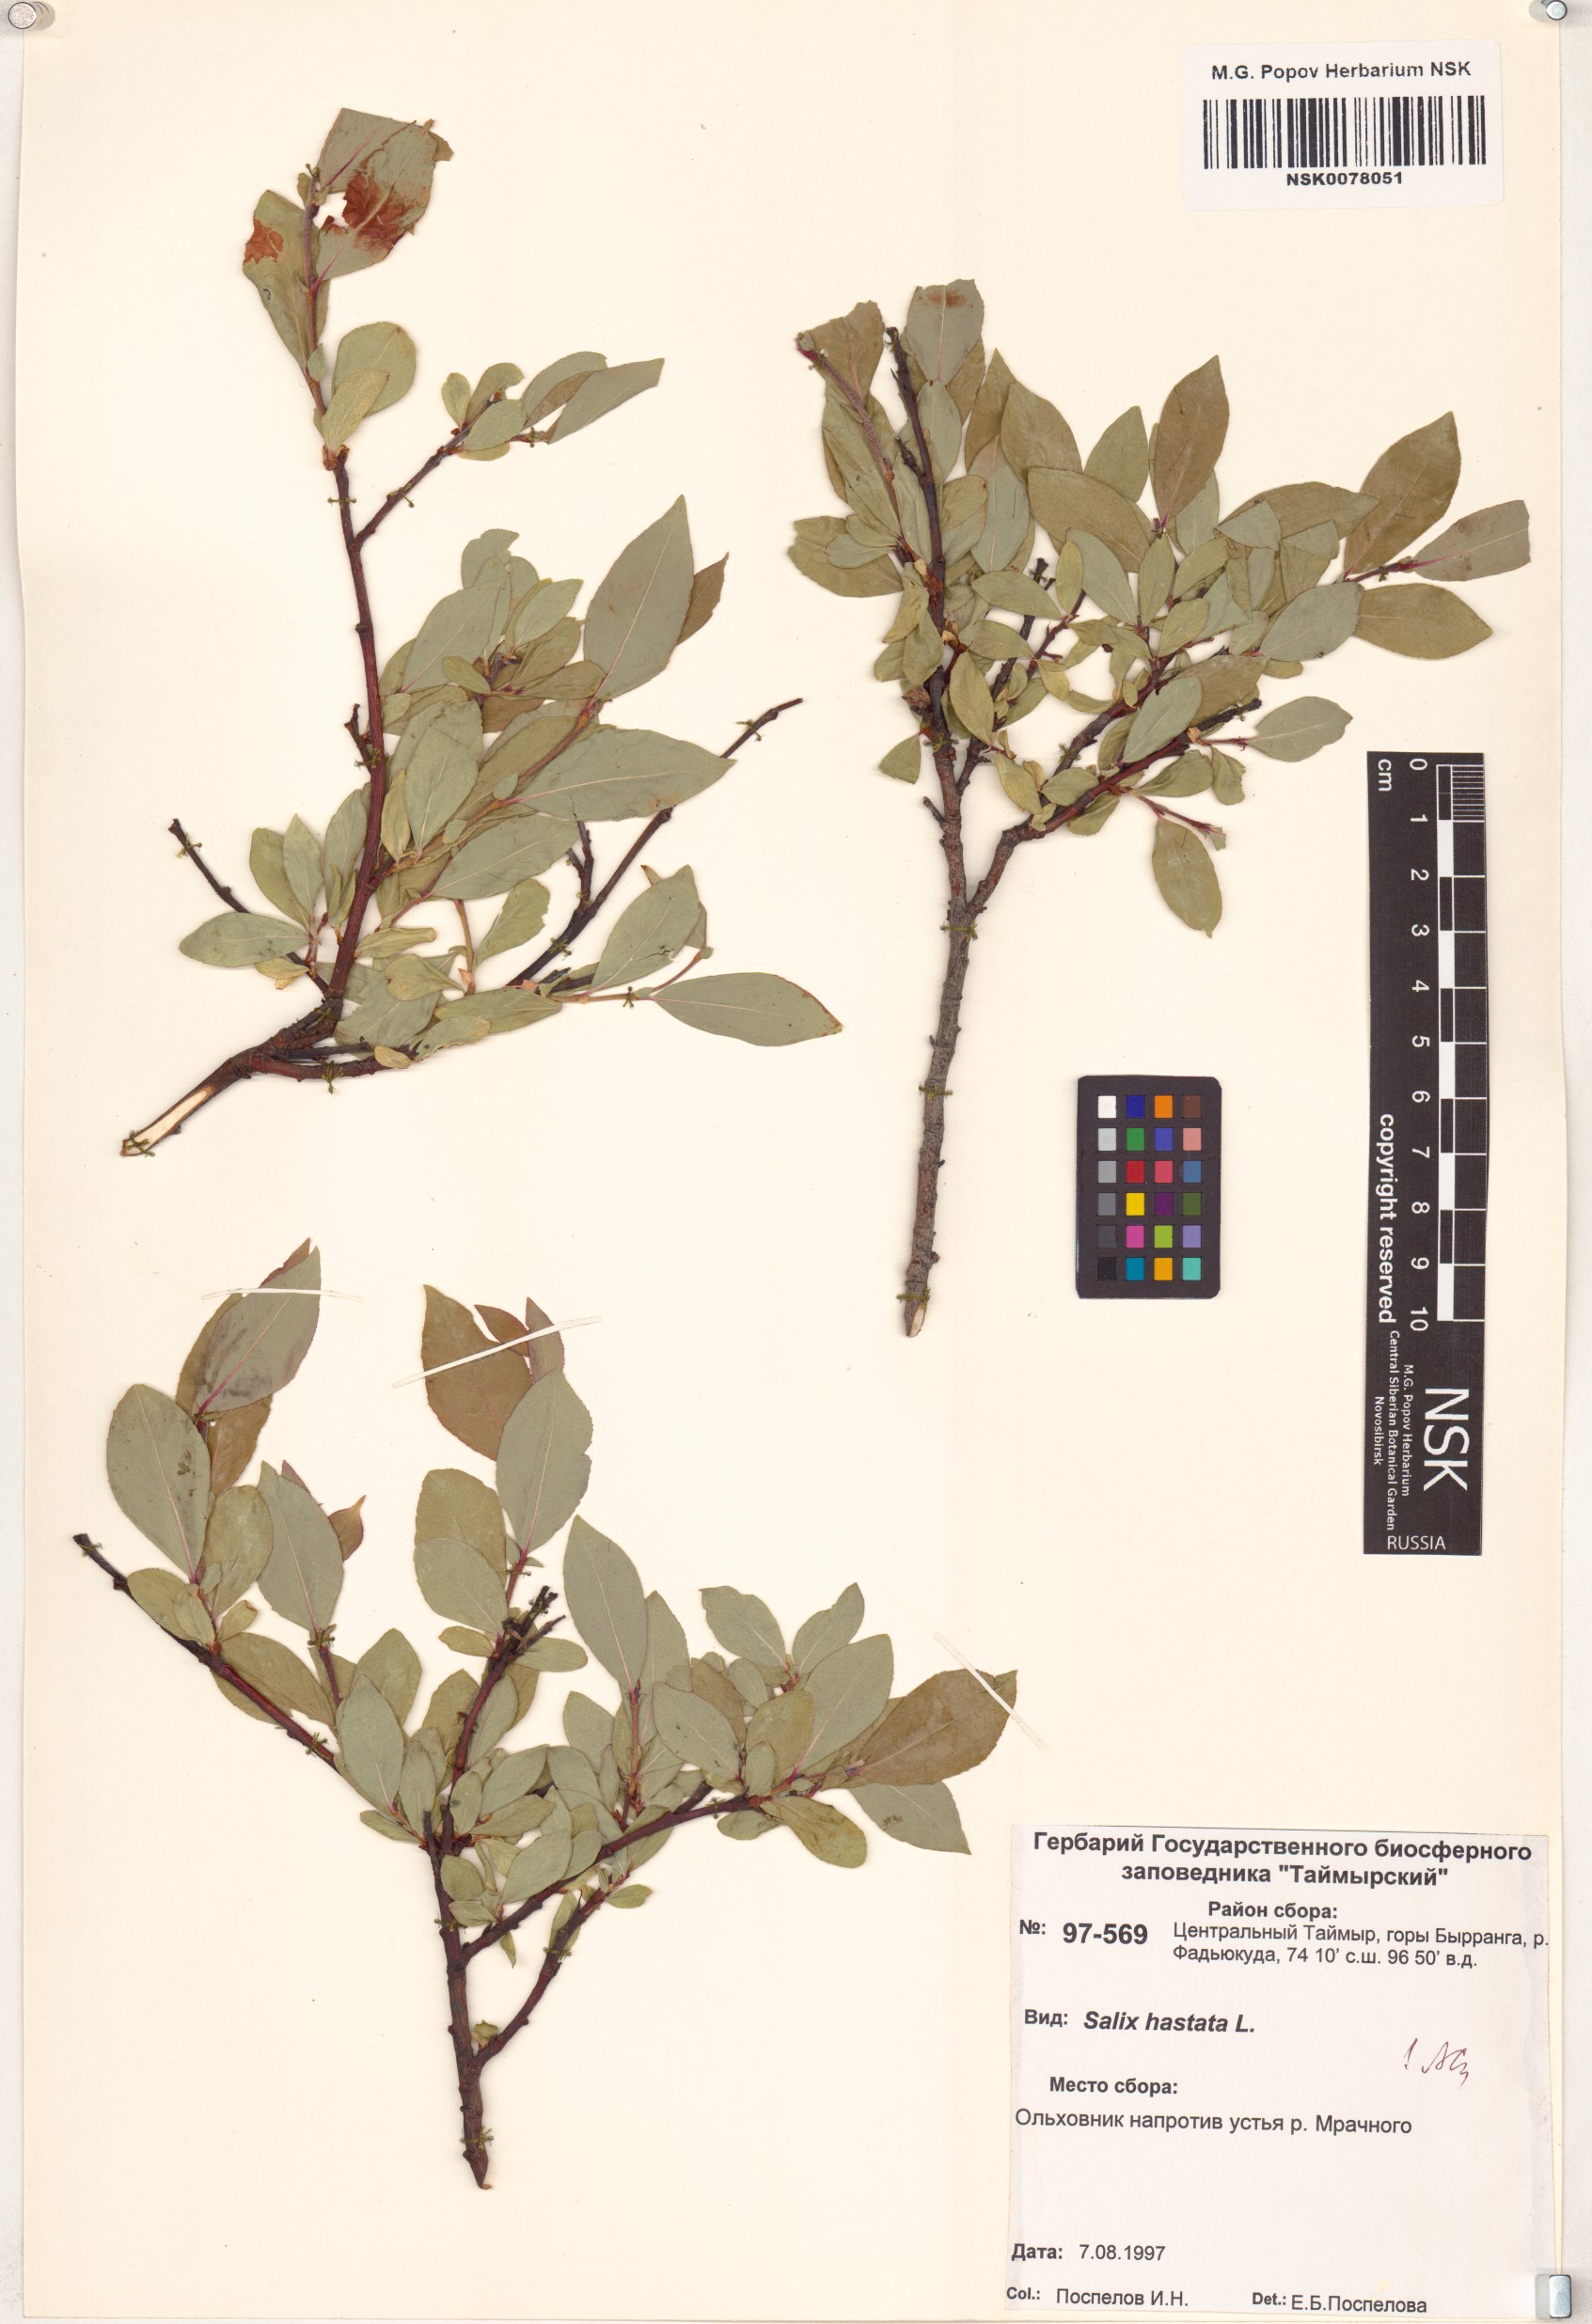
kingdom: Plantae
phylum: Tracheophyta
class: Magnoliopsida
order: Malpighiales
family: Salicaceae
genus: Salix
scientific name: Salix hastata
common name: Halberd willow
